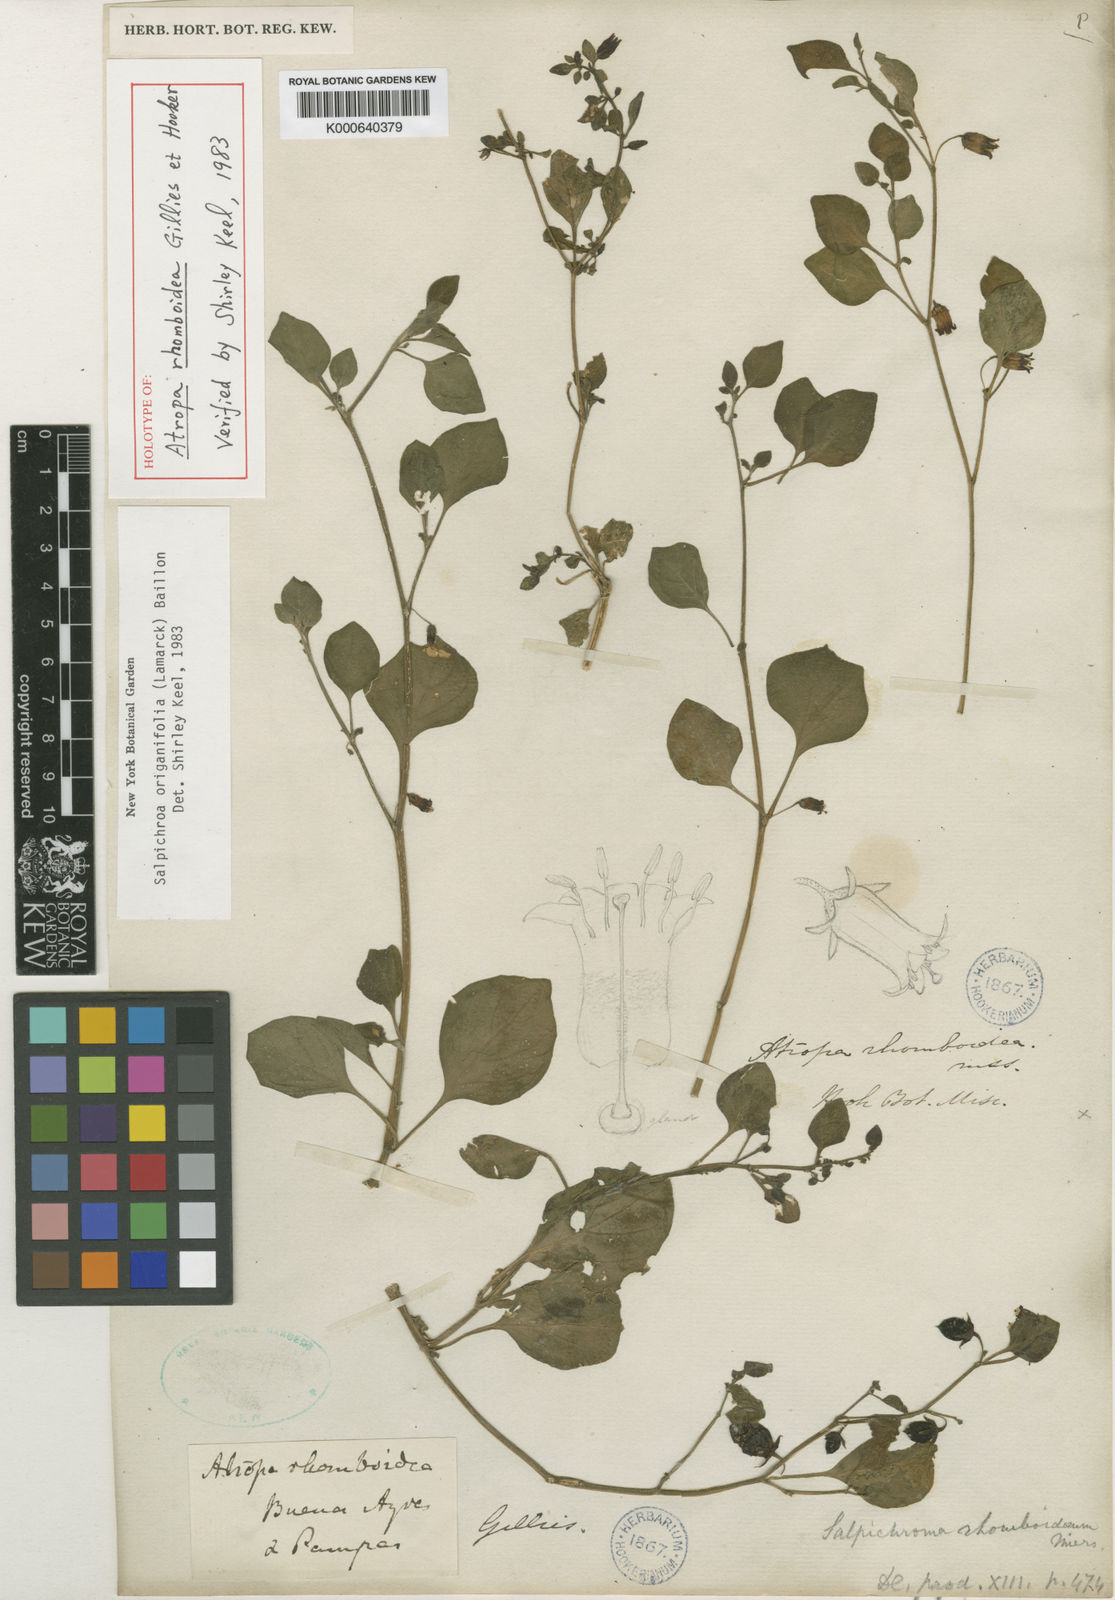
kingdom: Plantae
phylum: Tracheophyta
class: Magnoliopsida
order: Solanales
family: Solanaceae
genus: Salpichroa
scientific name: Salpichroa origanifolia
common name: Lily-of-the-valley-vine
